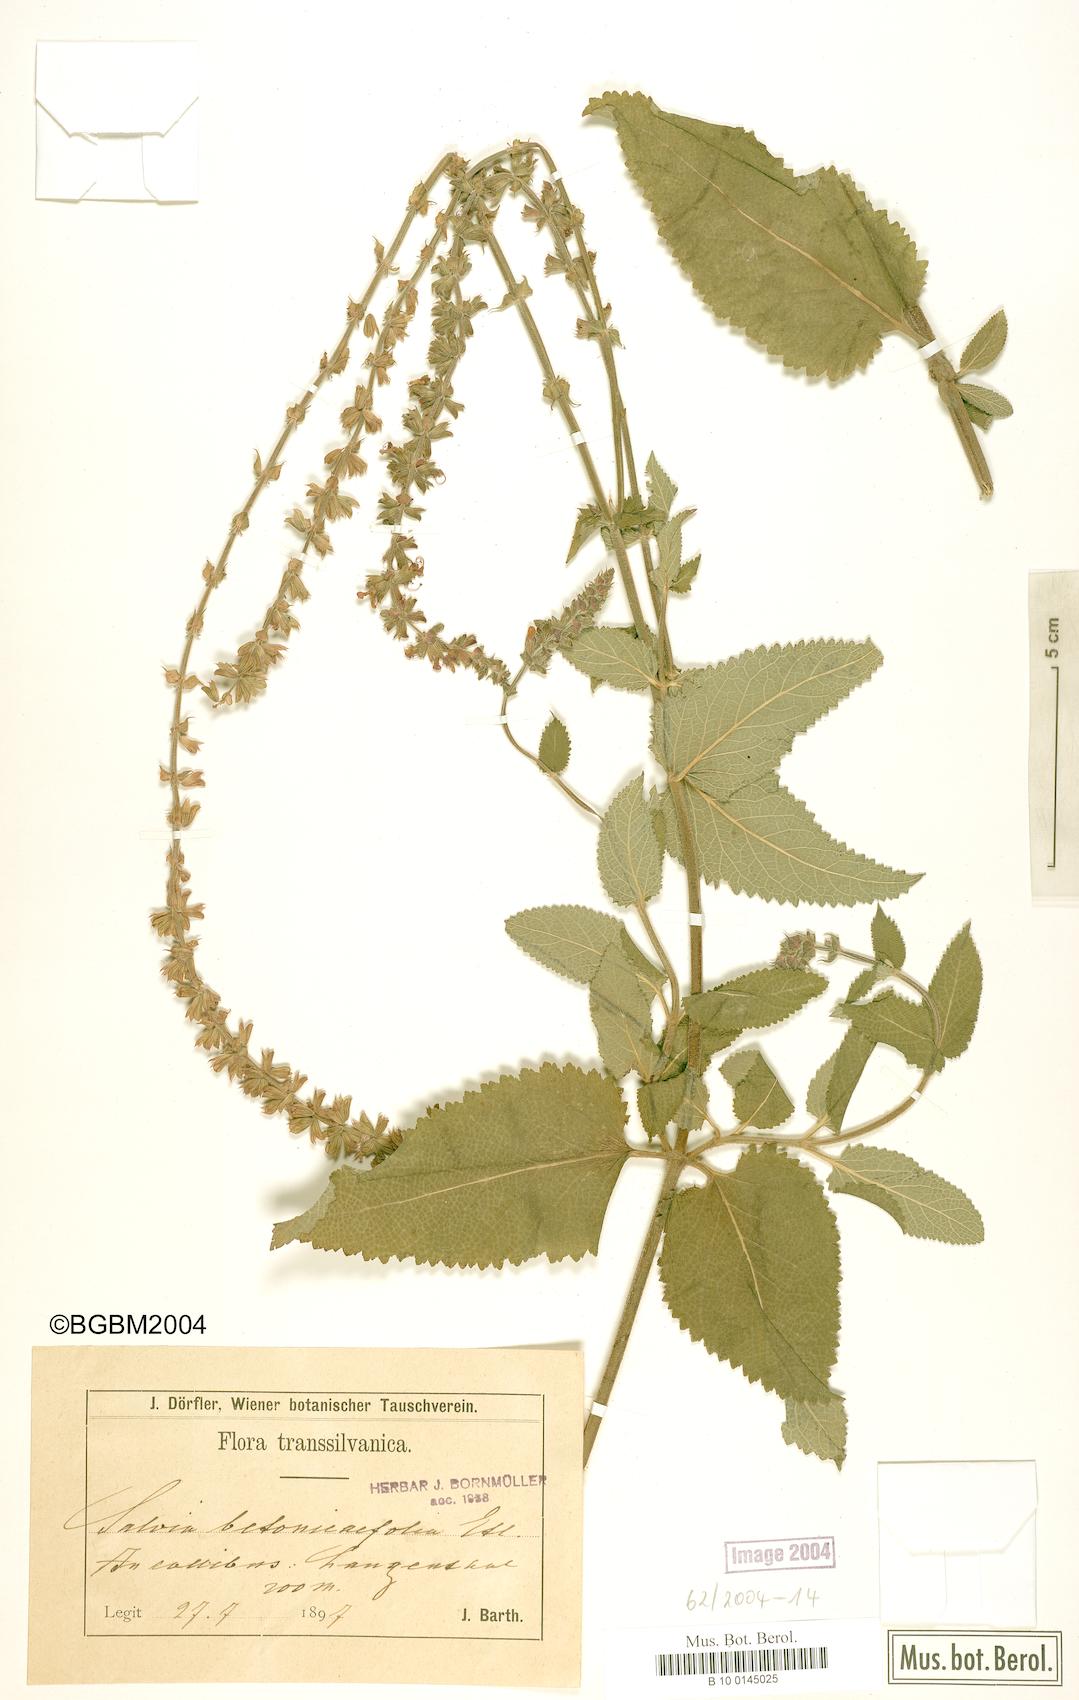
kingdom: Plantae
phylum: Tracheophyta
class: Magnoliopsida
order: Lamiales
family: Lamiaceae
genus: Salvia
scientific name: Salvia
